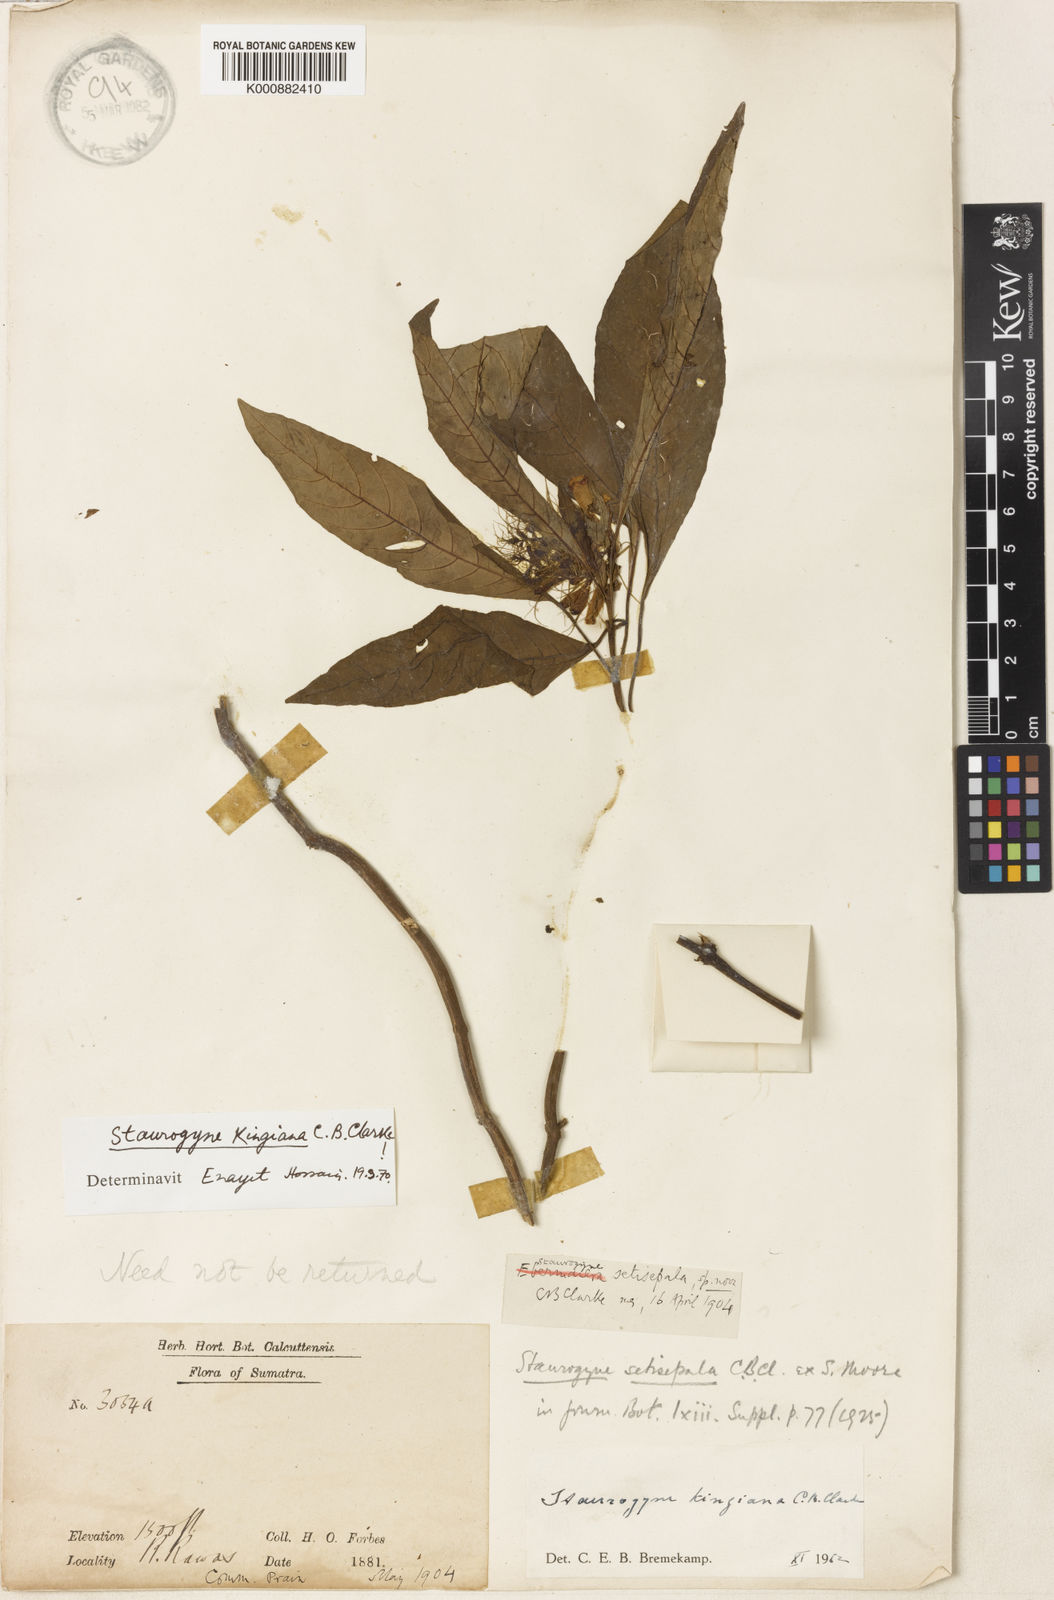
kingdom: Plantae
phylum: Tracheophyta
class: Magnoliopsida
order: Lamiales
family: Acanthaceae
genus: Staurogyne
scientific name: Staurogyne kingiana
